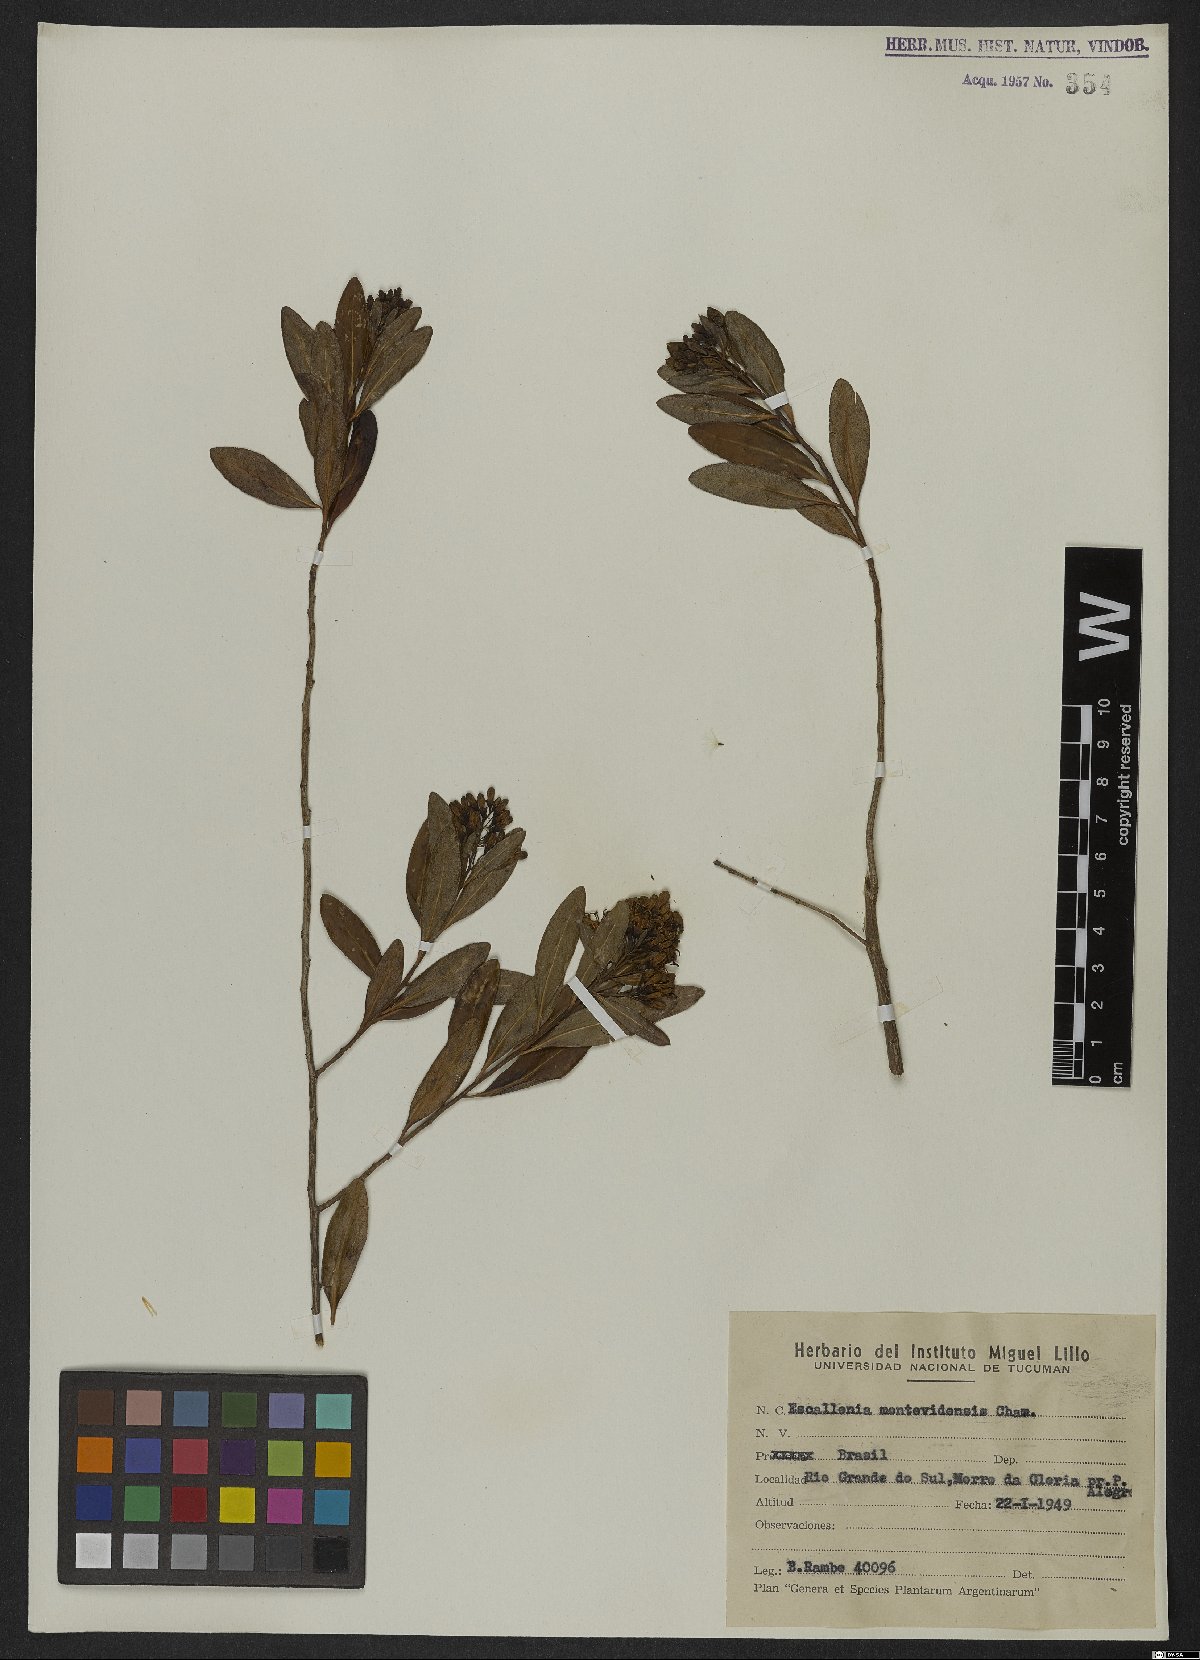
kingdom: Plantae
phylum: Tracheophyta
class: Magnoliopsida
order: Escalloniales
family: Escalloniaceae
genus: Escallonia
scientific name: Escallonia bifida
